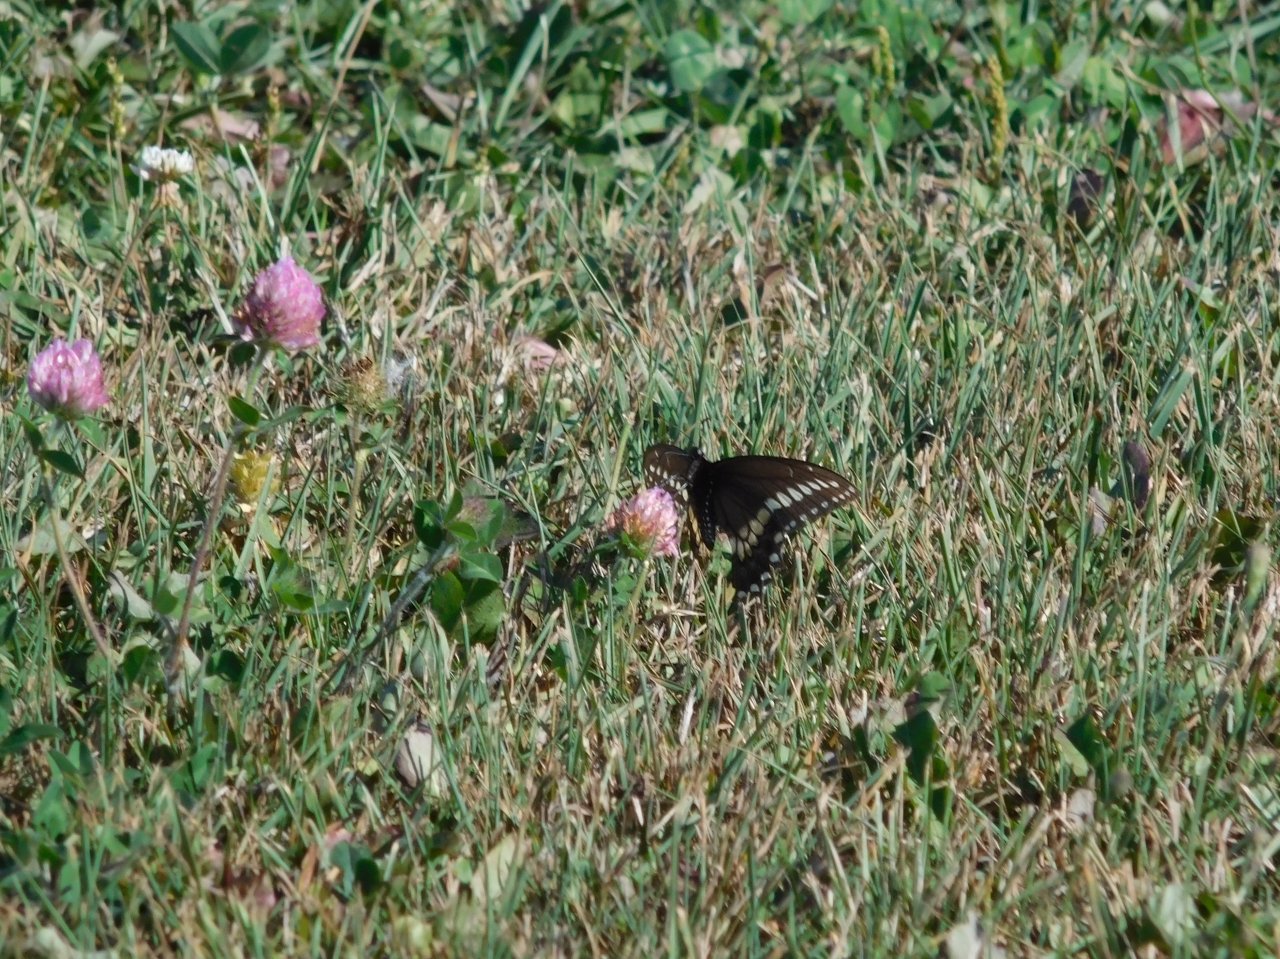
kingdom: Animalia
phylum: Arthropoda
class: Insecta
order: Lepidoptera
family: Papilionidae
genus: Papilio
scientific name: Papilio polyxenes
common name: Black Swallowtail
